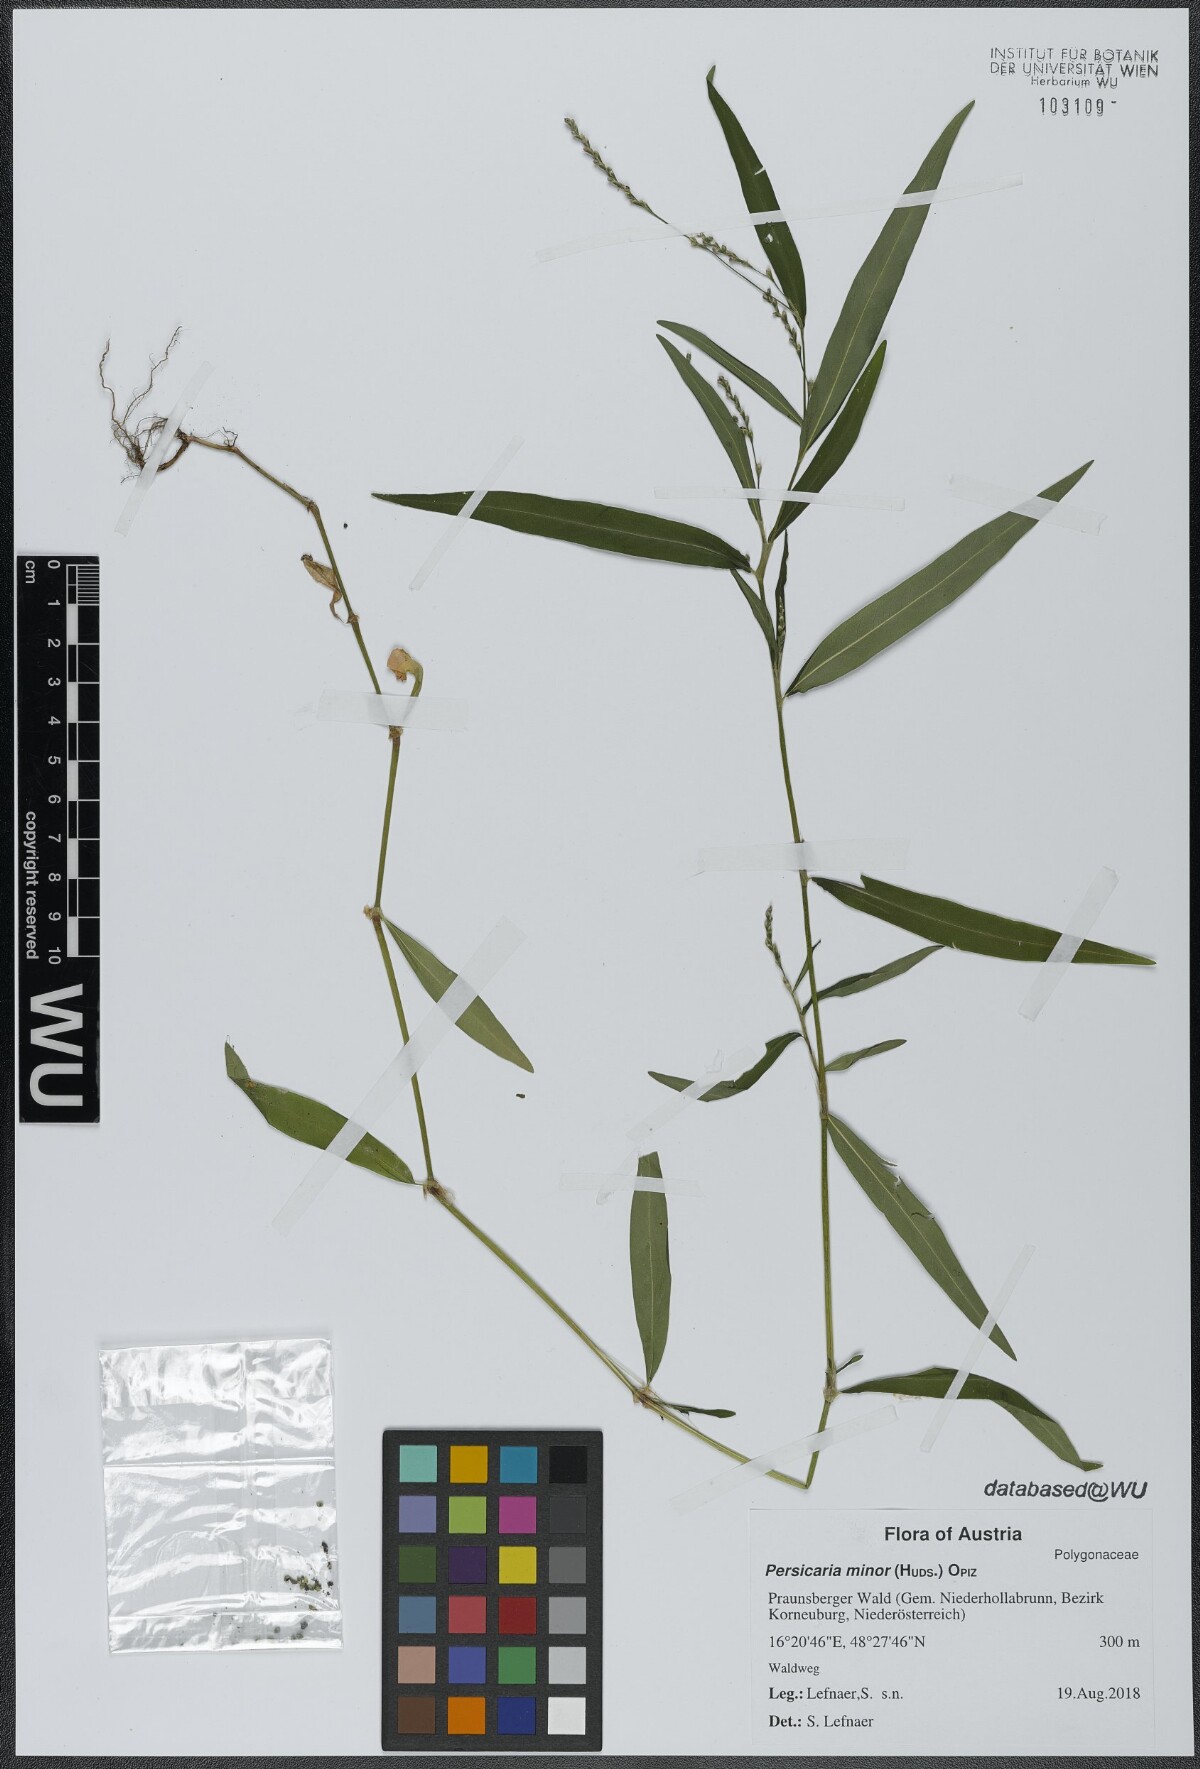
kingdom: Plantae
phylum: Tracheophyta
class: Magnoliopsida
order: Caryophyllales
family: Polygonaceae
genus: Persicaria
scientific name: Persicaria minor
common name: Small water-pepper
